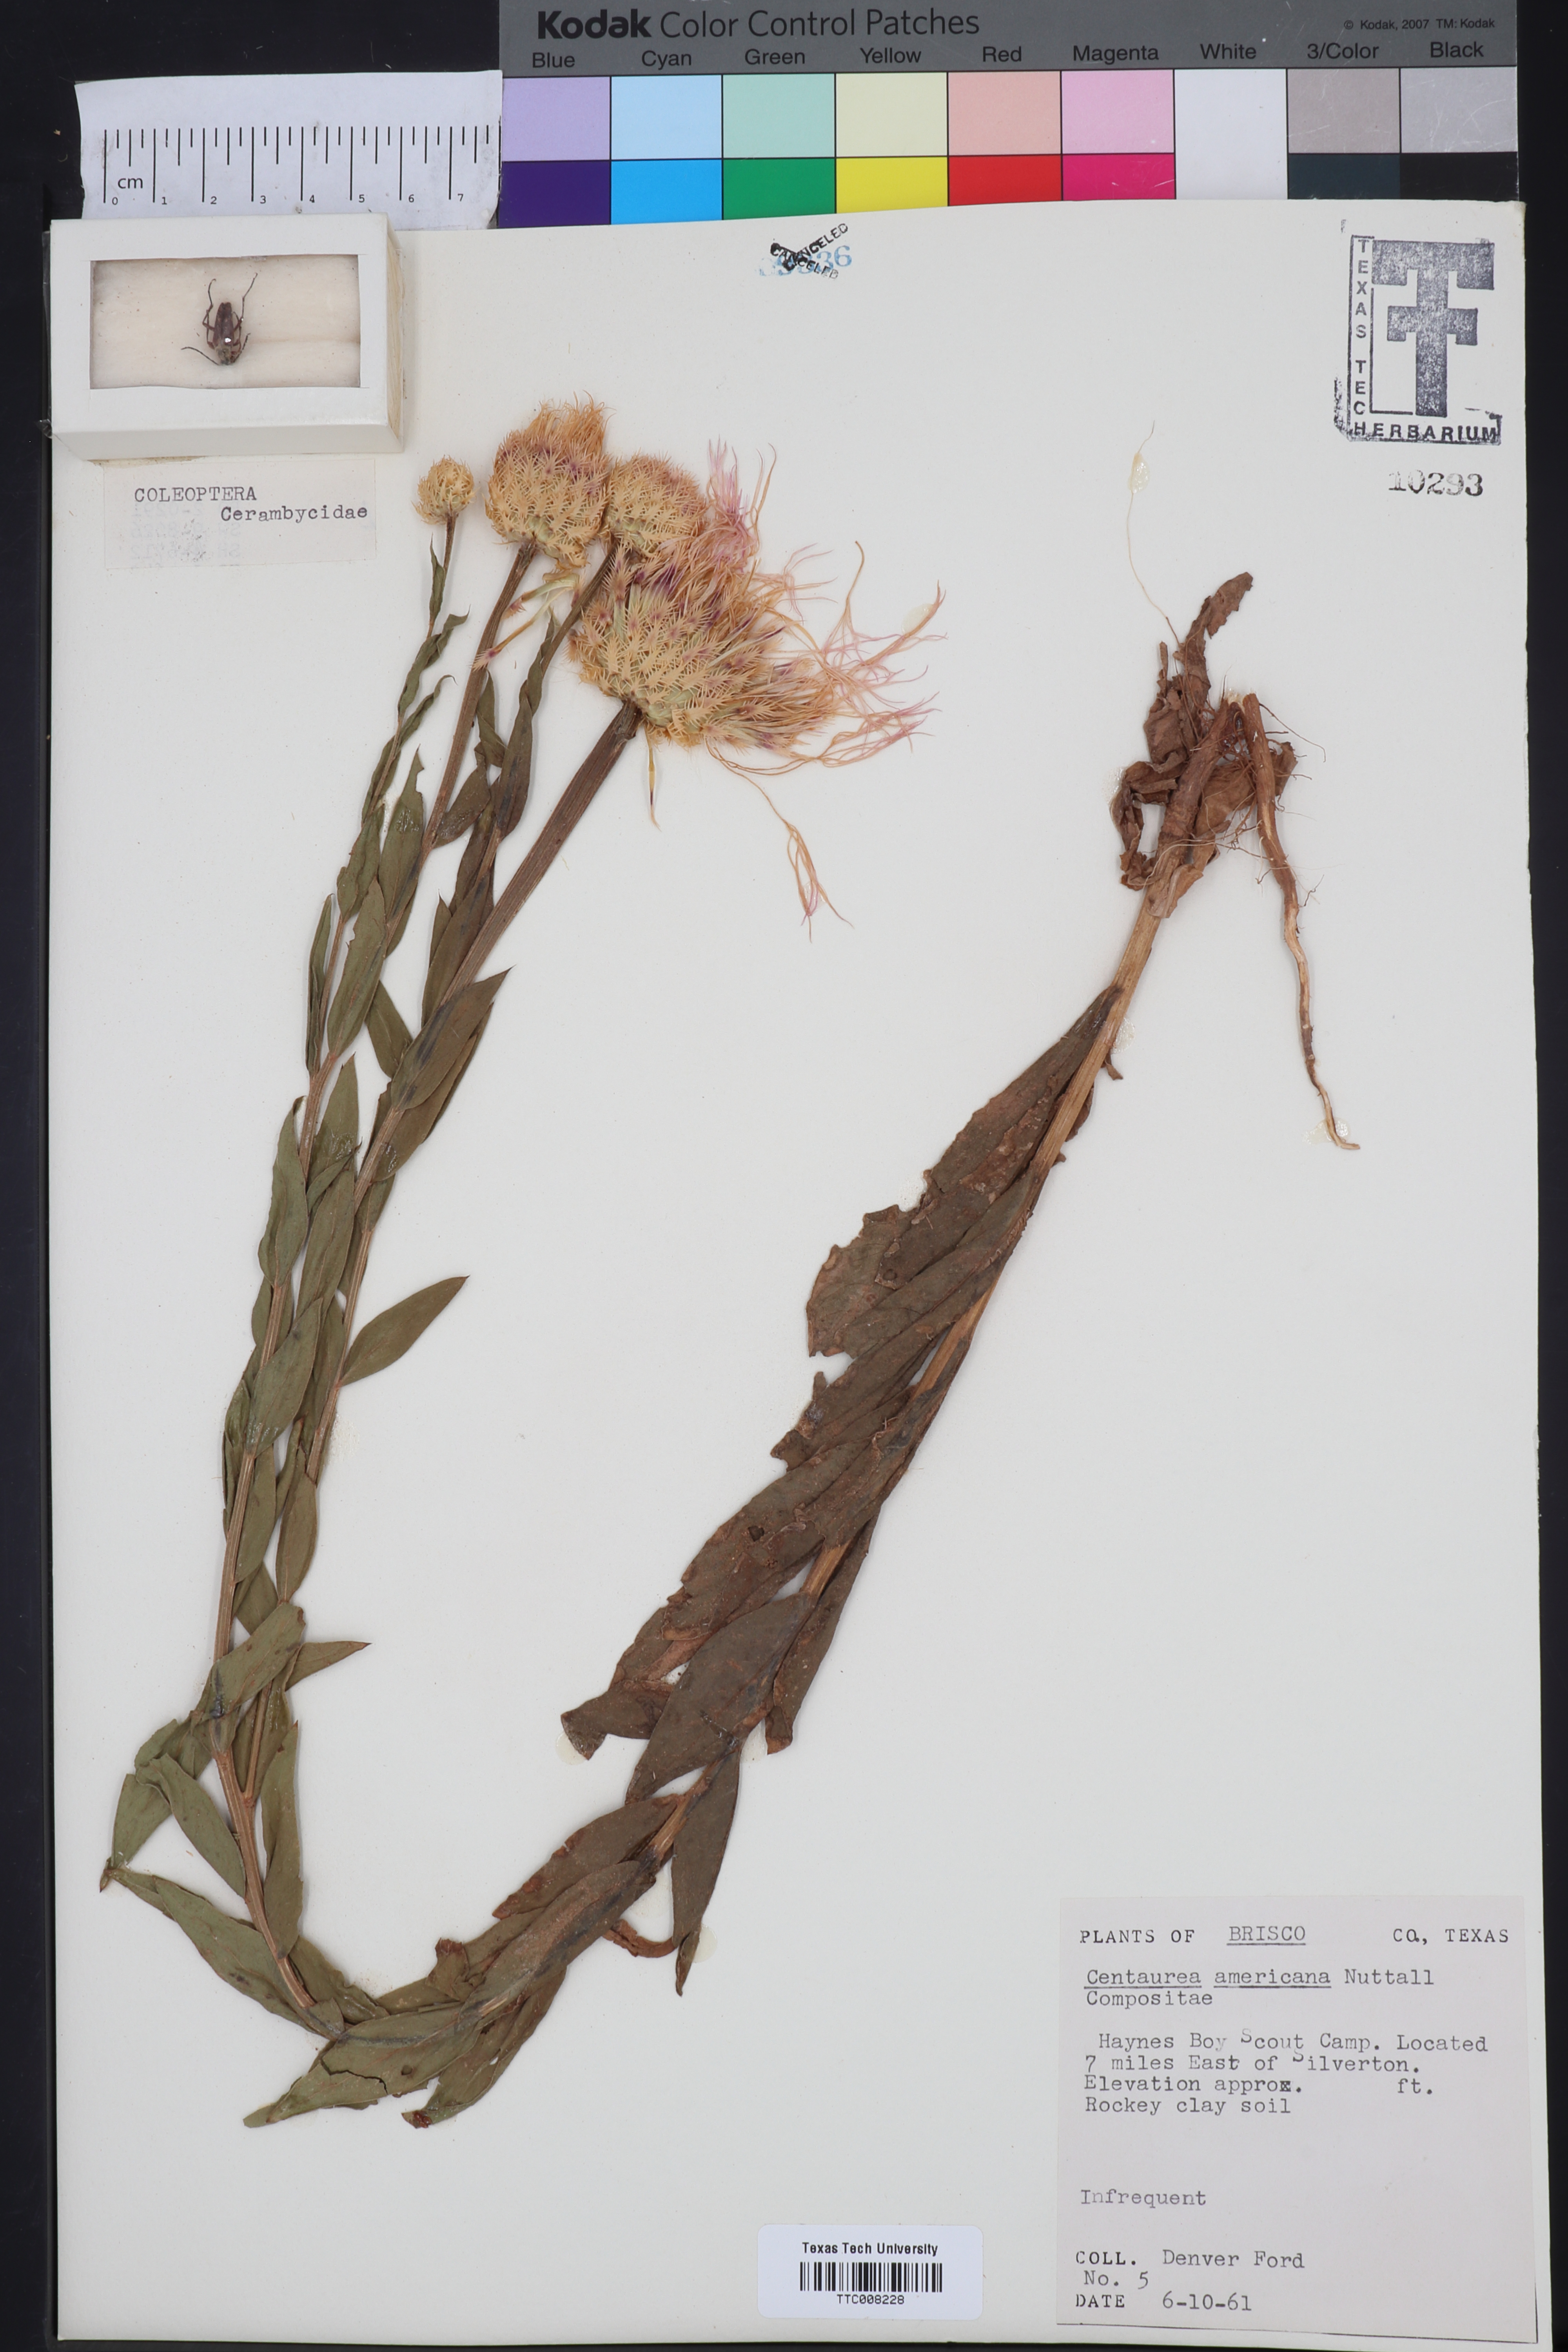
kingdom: Plantae
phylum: Tracheophyta
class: Magnoliopsida
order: Asterales
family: Asteraceae
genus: Plectocephalus
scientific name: Plectocephalus americanus
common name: American basket-flower
